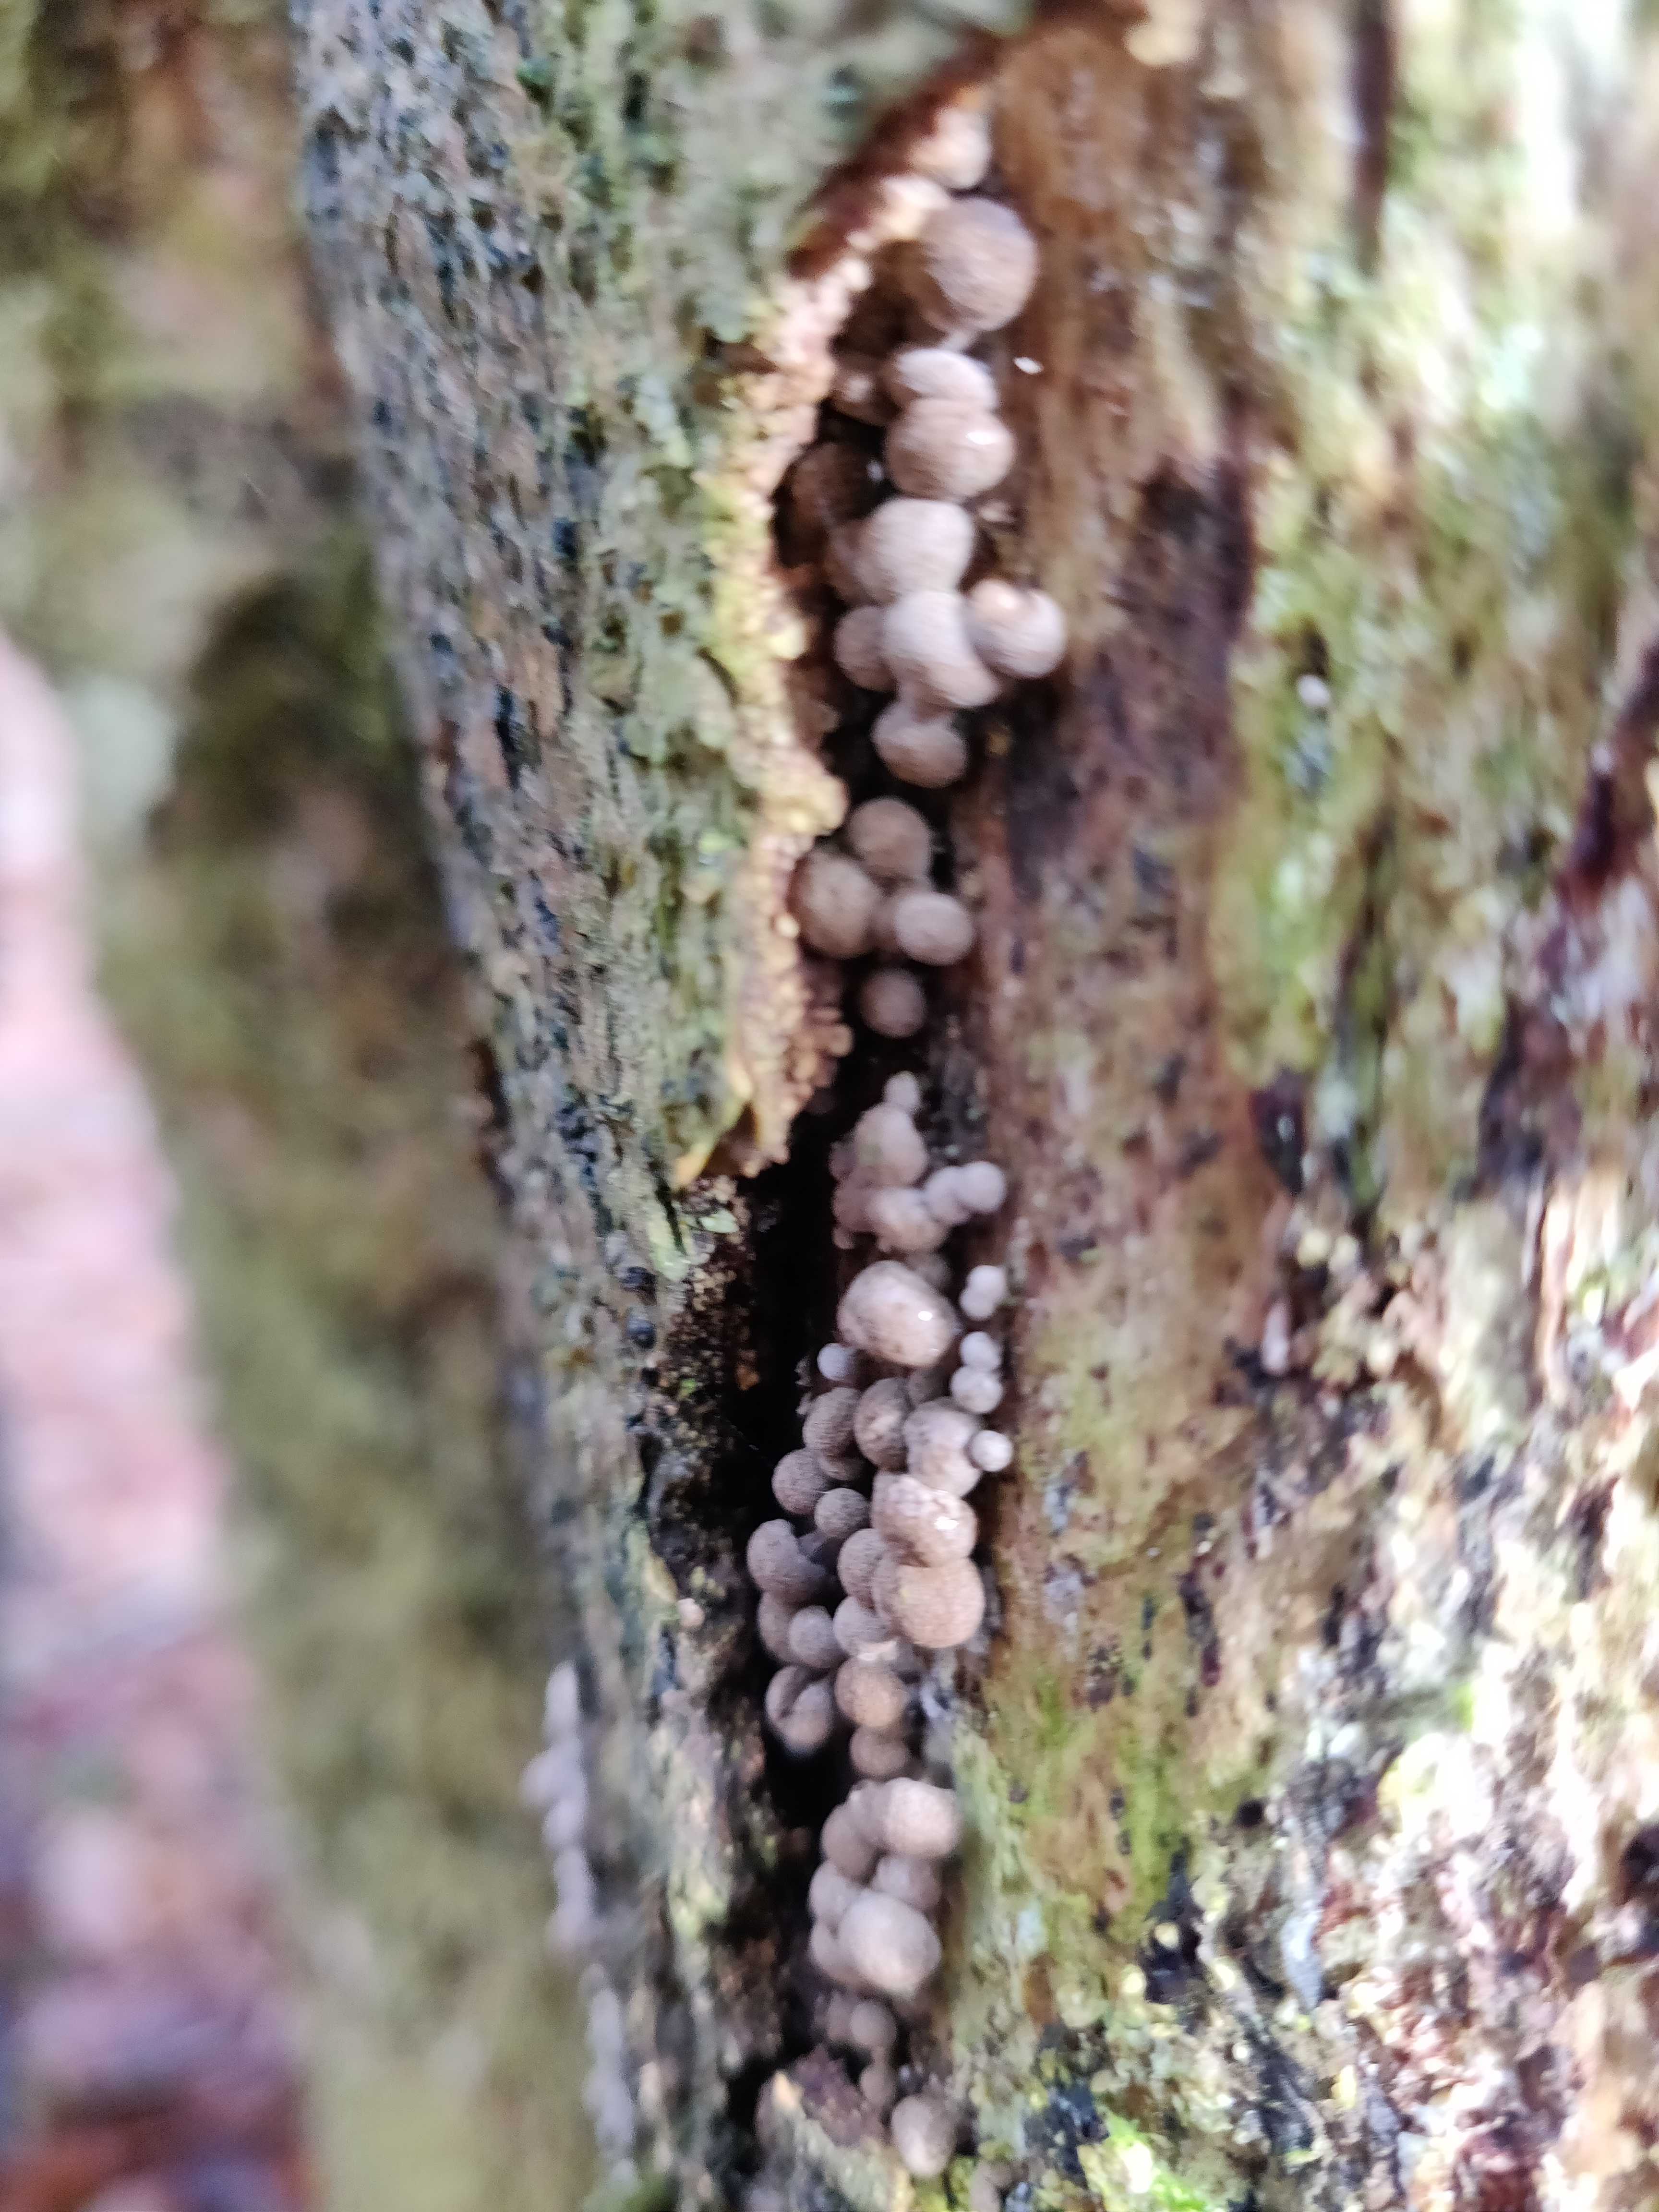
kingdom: Fungi
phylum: Basidiomycota
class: Atractiellomycetes
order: Atractiellales
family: Phleogenaceae
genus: Phleogena
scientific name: Phleogena faginea
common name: pudderkølle
